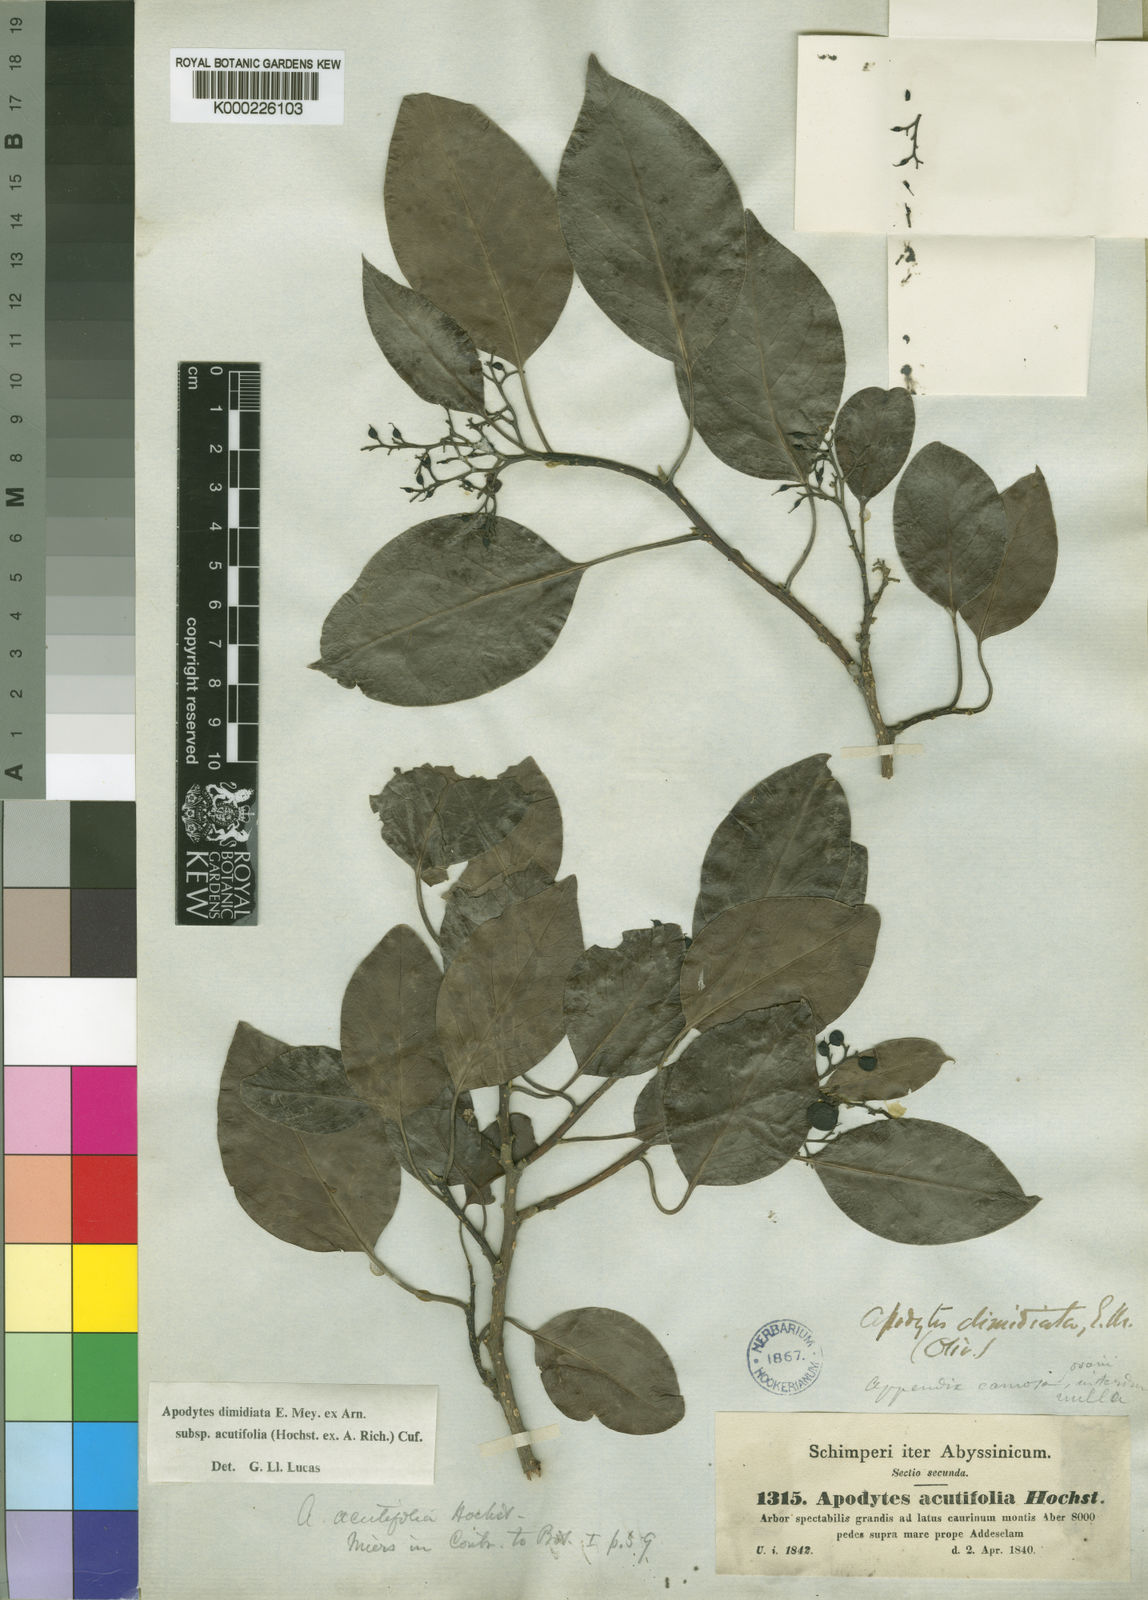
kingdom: Plantae
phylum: Tracheophyta
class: Magnoliopsida
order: Metteniusales
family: Metteniusaceae
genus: Apodytes
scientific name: Apodytes dimidiata
